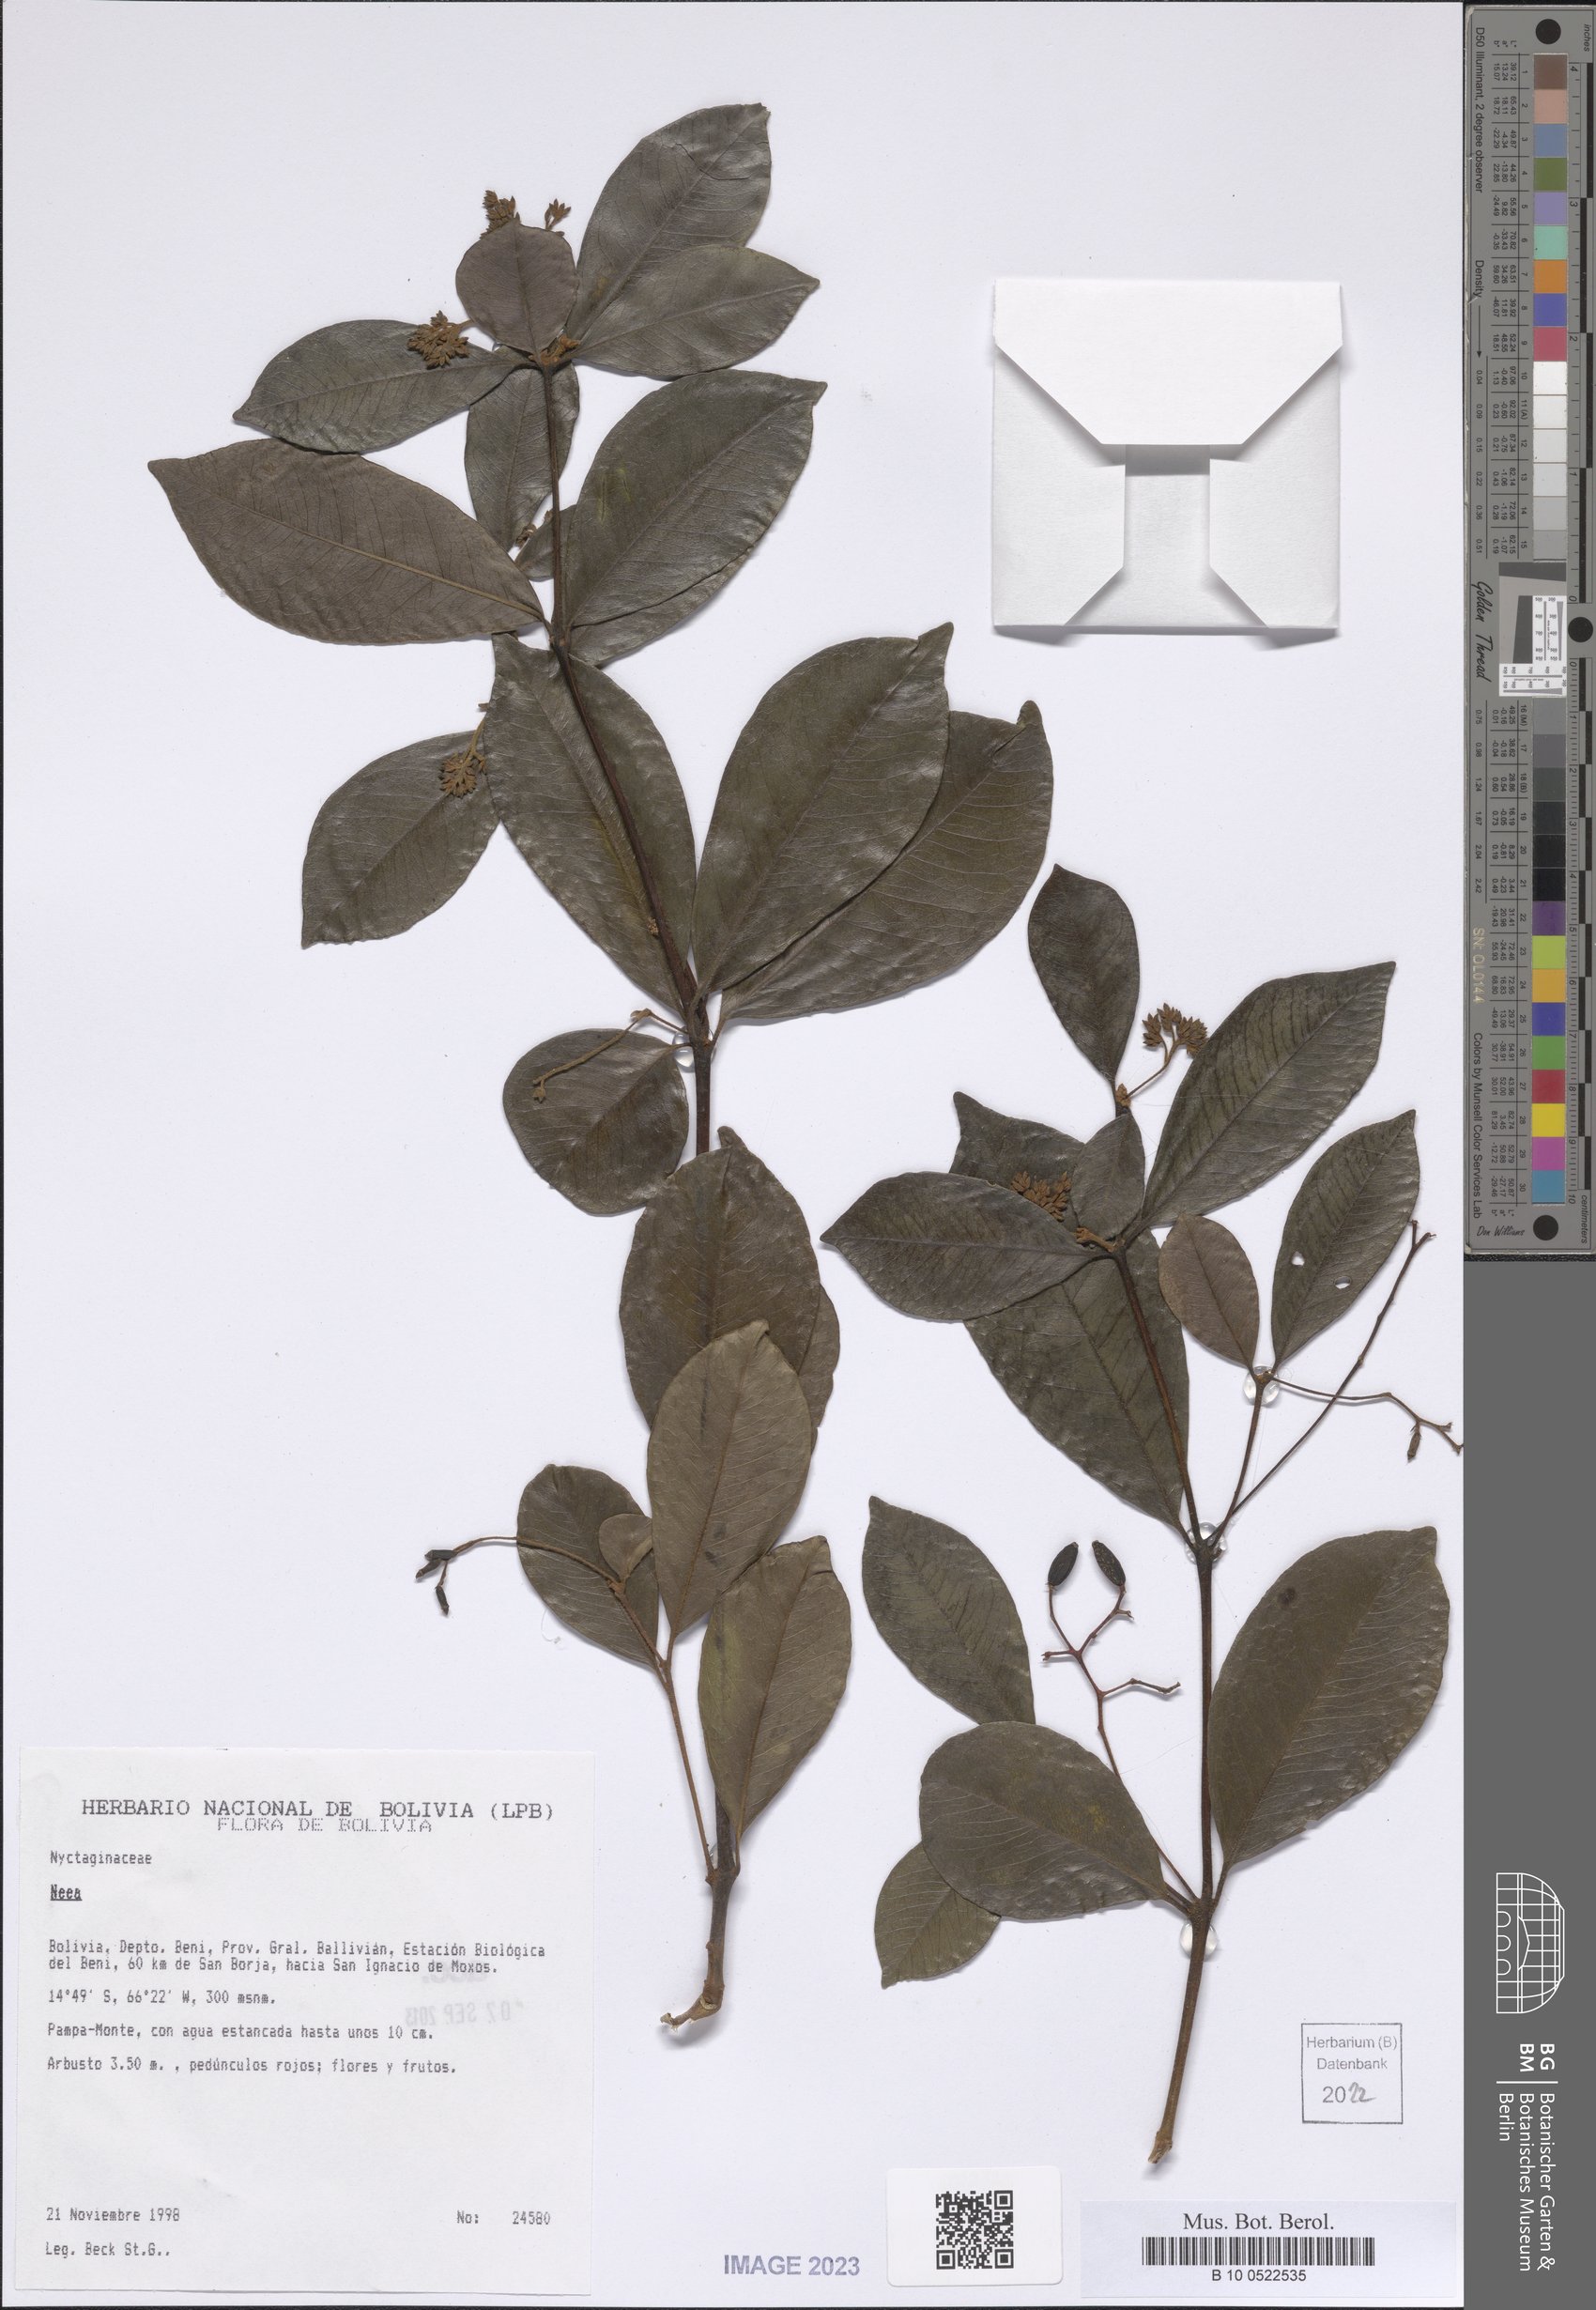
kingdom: Plantae
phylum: Tracheophyta
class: Magnoliopsida
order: Caryophyllales
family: Nyctaginaceae
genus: Neea
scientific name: Neea
